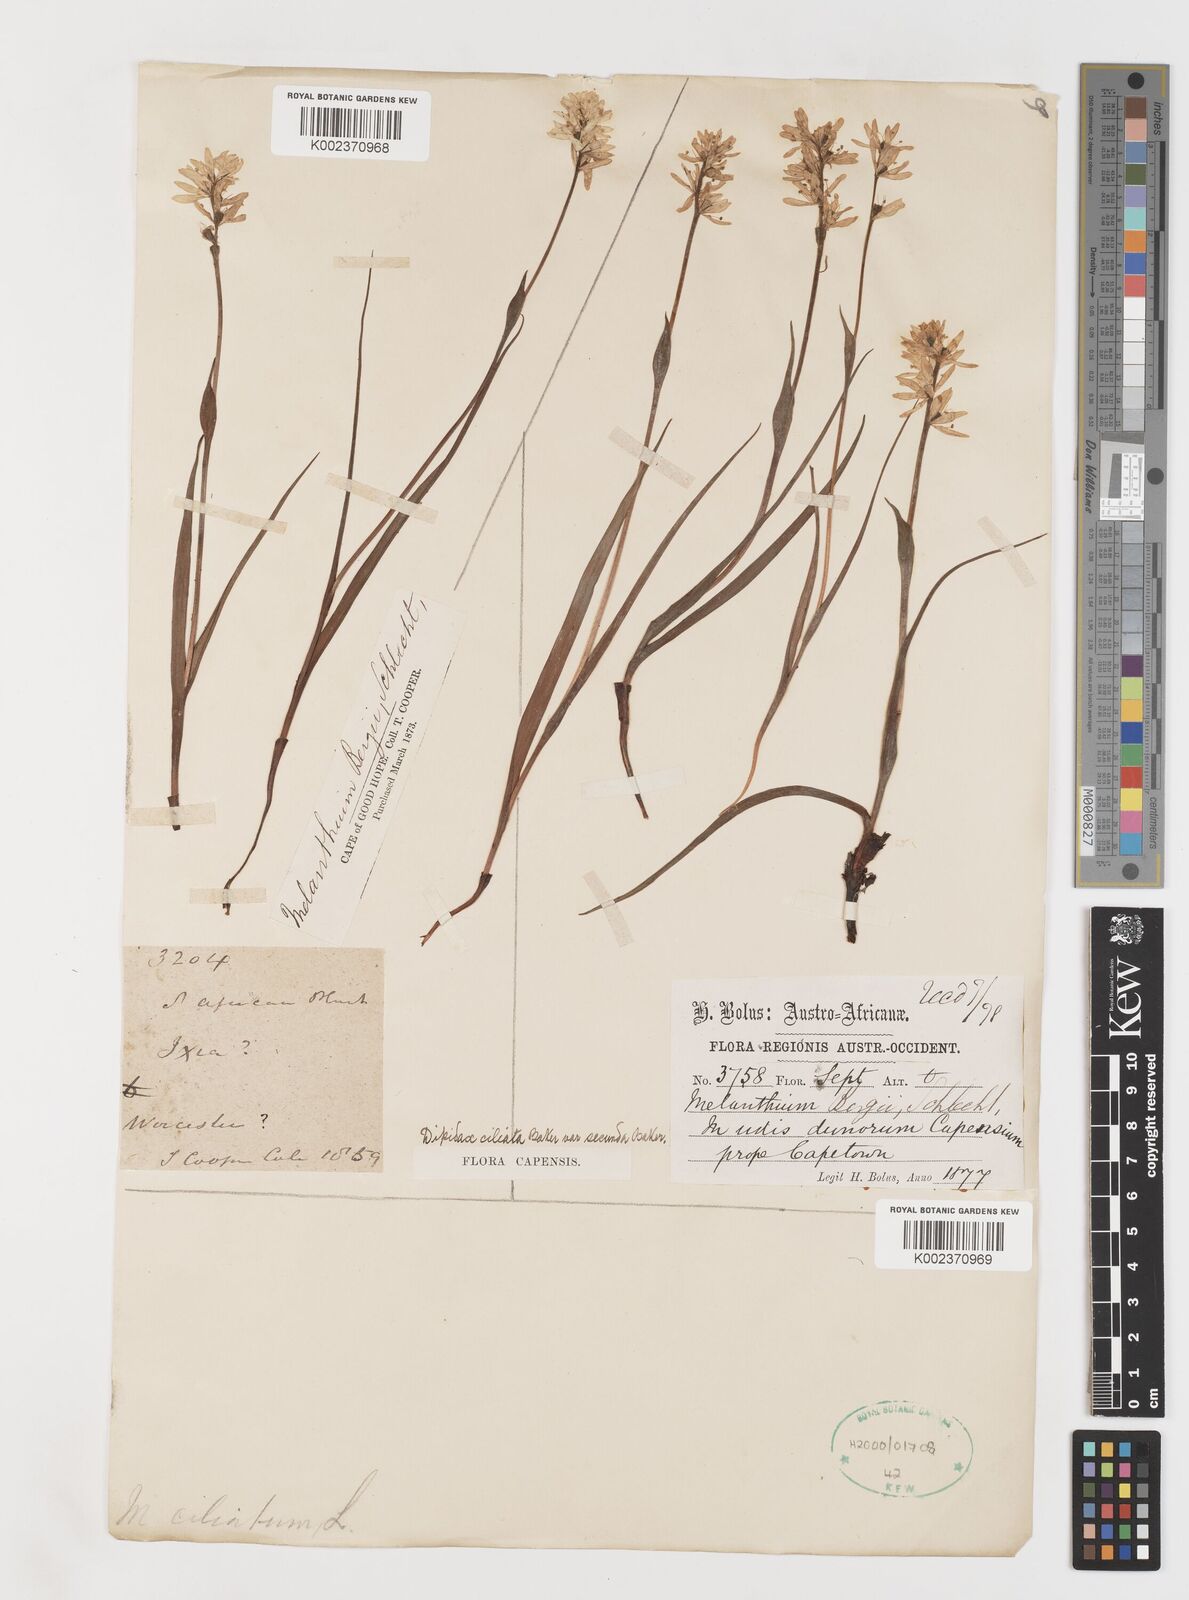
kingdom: Plantae
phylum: Tracheophyta
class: Liliopsida
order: Liliales
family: Colchicaceae
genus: Wurmbea
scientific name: Wurmbea punctata
